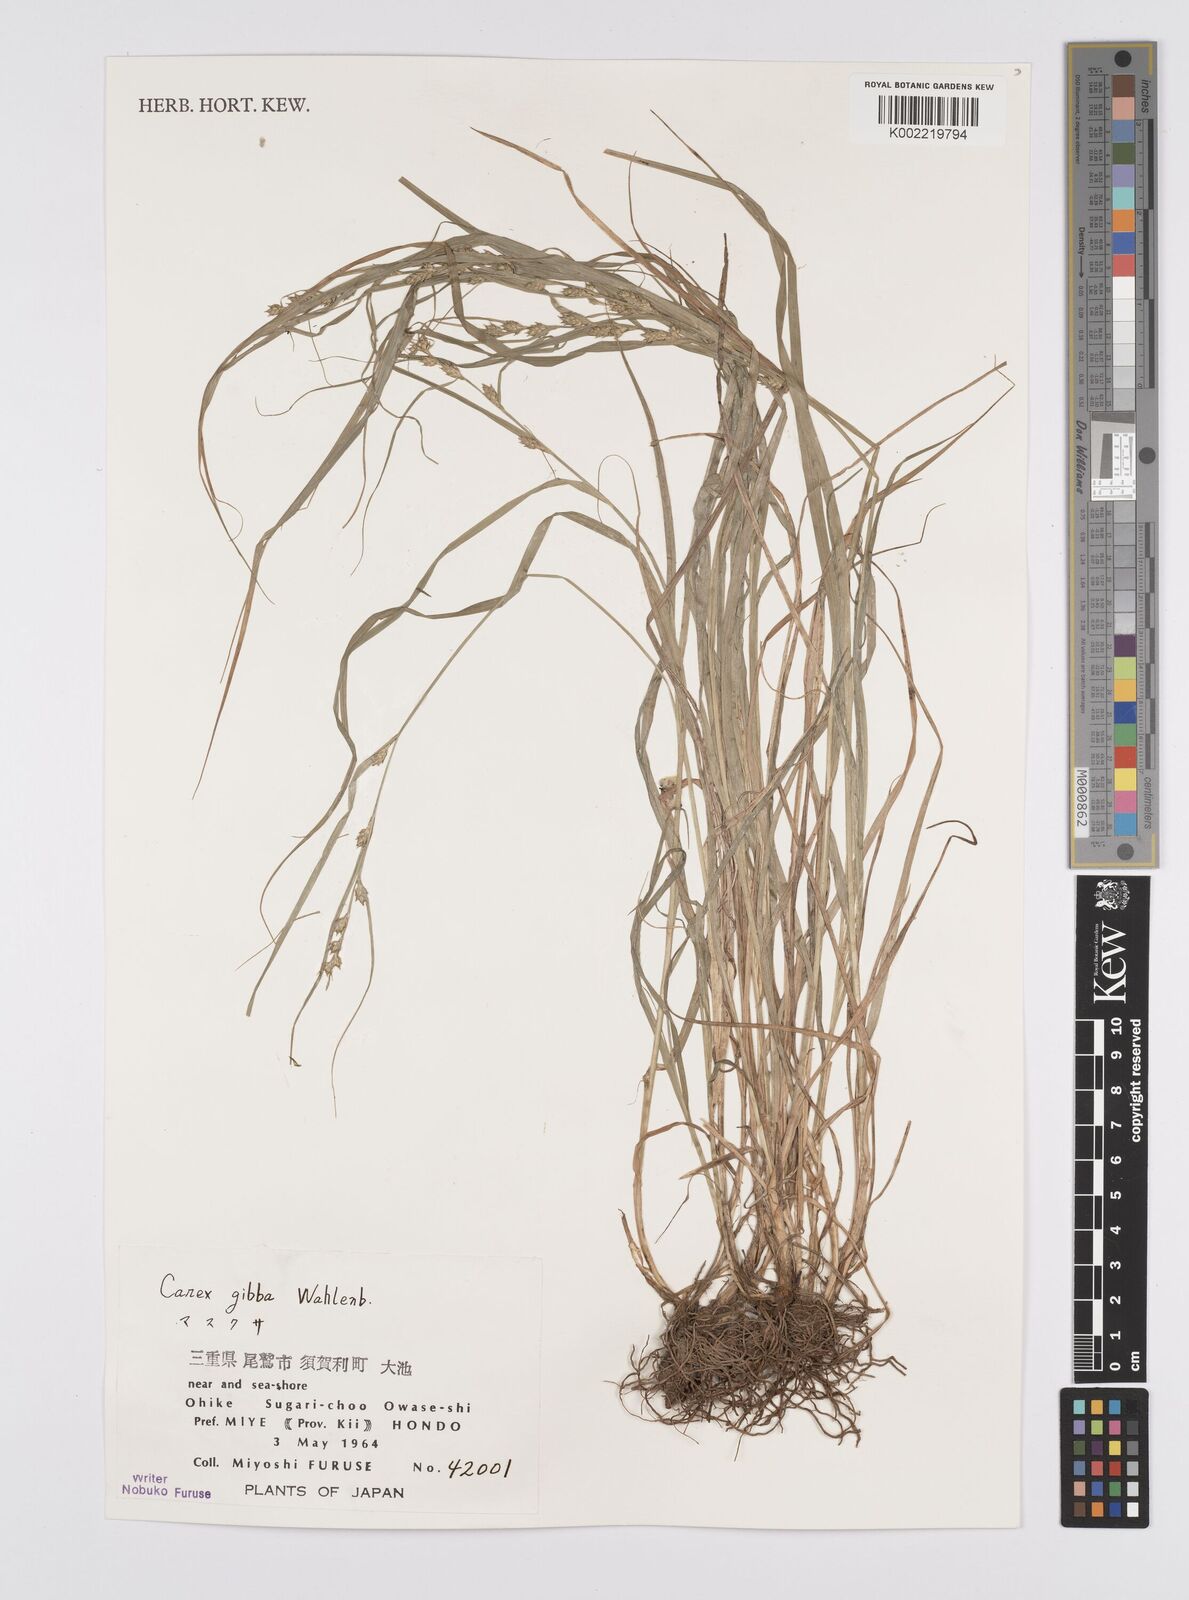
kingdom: Plantae
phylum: Tracheophyta
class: Liliopsida
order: Poales
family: Cyperaceae
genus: Carex
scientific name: Carex gibba
